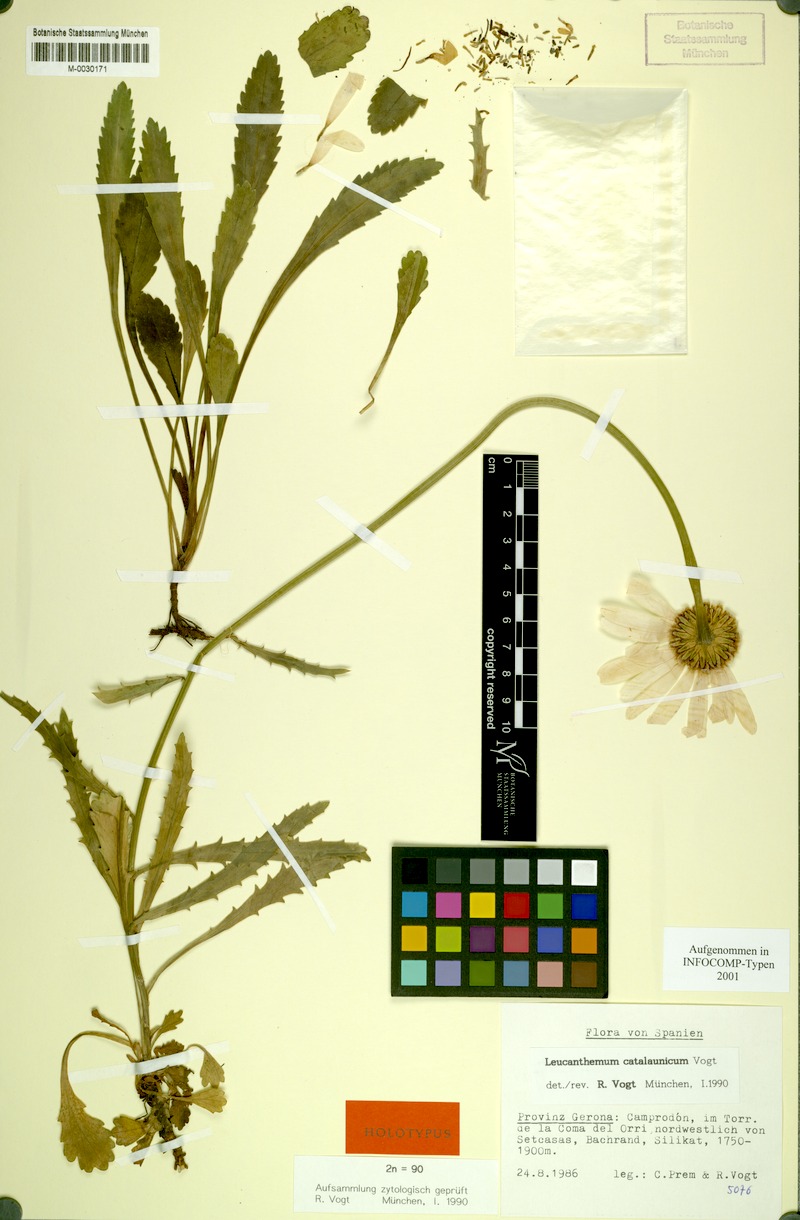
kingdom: Plantae
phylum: Tracheophyta
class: Magnoliopsida
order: Asterales
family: Asteraceae
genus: Leucanthemum
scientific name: Leucanthemum catalaunicum
